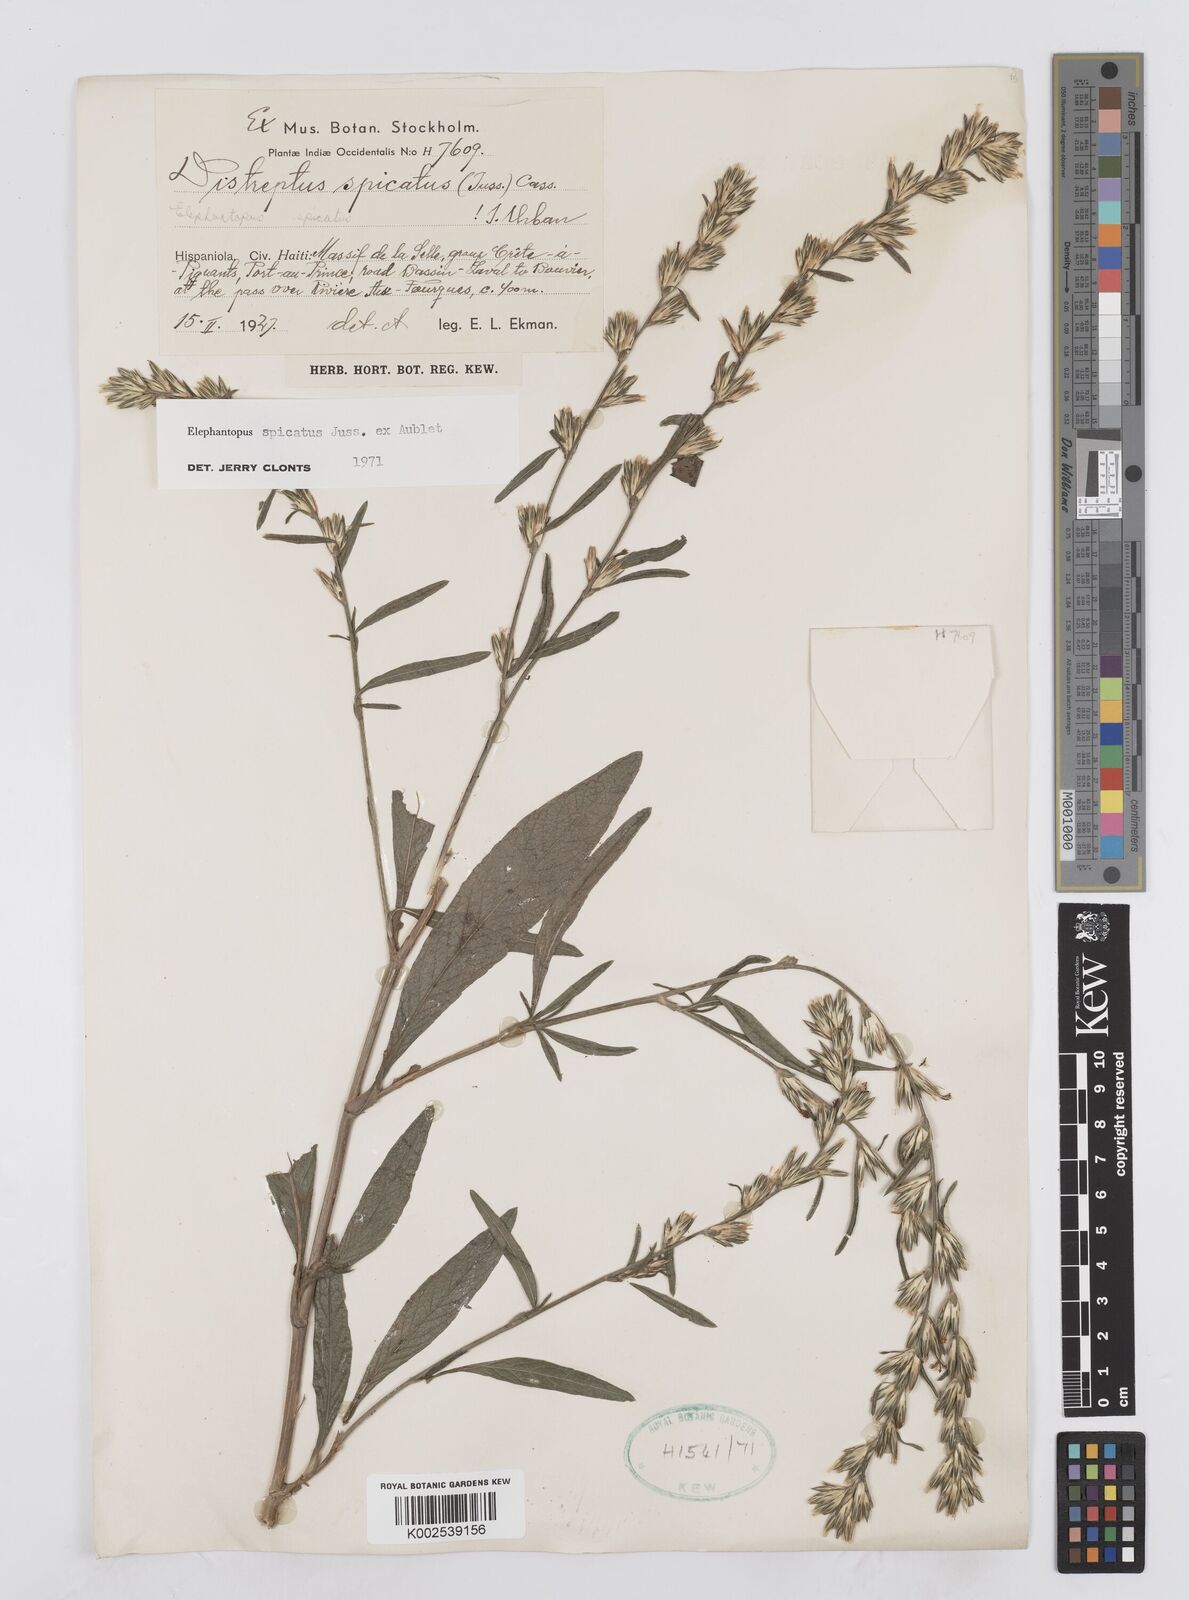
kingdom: Plantae
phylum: Tracheophyta
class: Magnoliopsida
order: Asterales
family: Asteraceae
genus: Pseudelephantopus
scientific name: Pseudelephantopus spicatus
